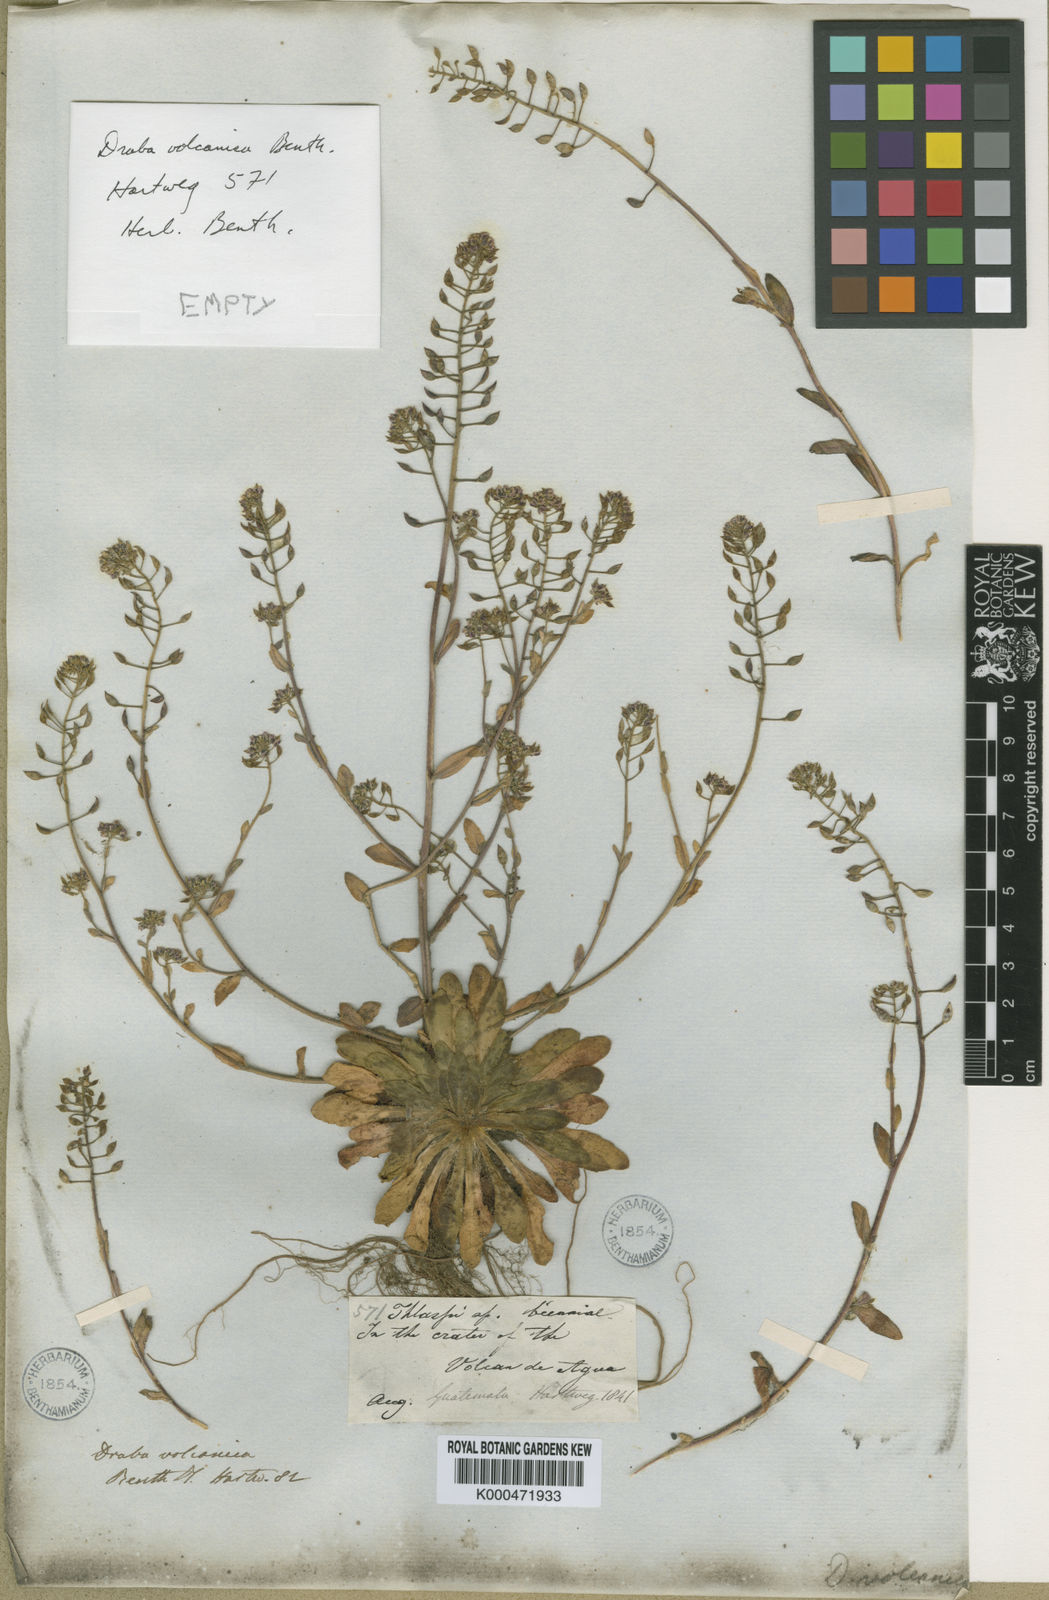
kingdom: Plantae
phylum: Tracheophyta
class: Magnoliopsida
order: Brassicales
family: Brassicaceae
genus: Draba
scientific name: Draba jorullensis
